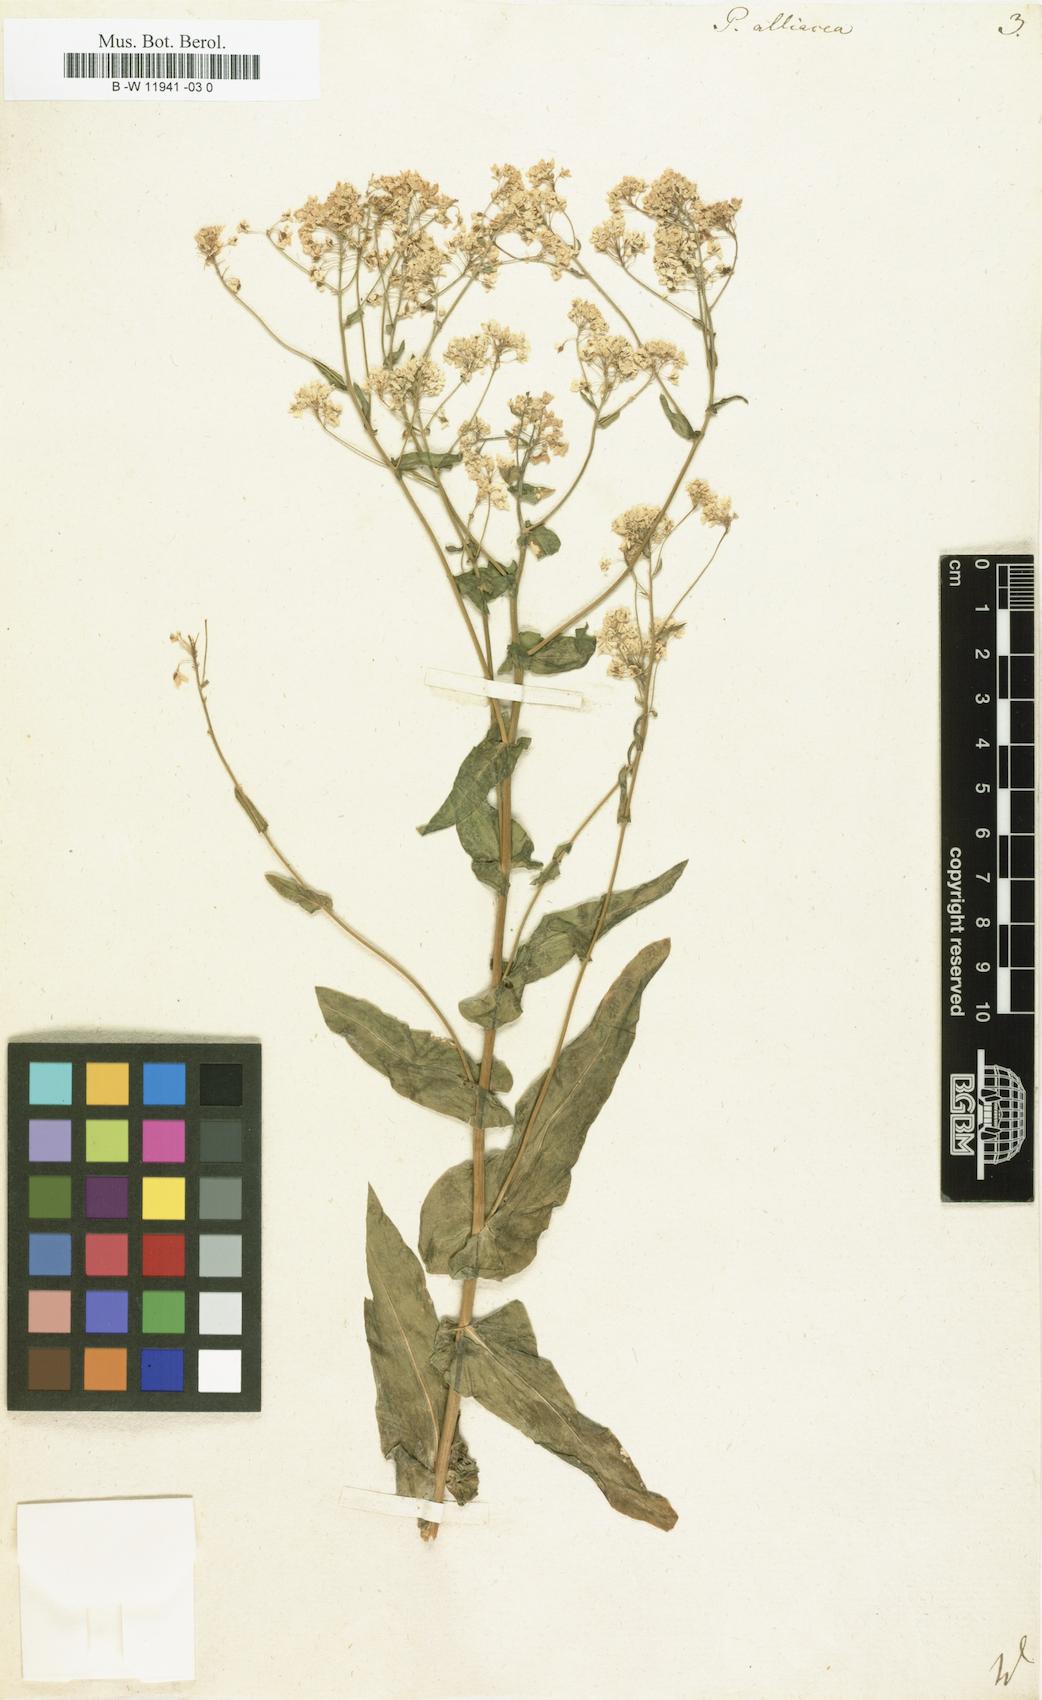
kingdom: Plantae
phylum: Tracheophyta
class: Magnoliopsida
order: Brassicales
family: Brassicaceae
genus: Peltaria
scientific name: Peltaria alliacea
